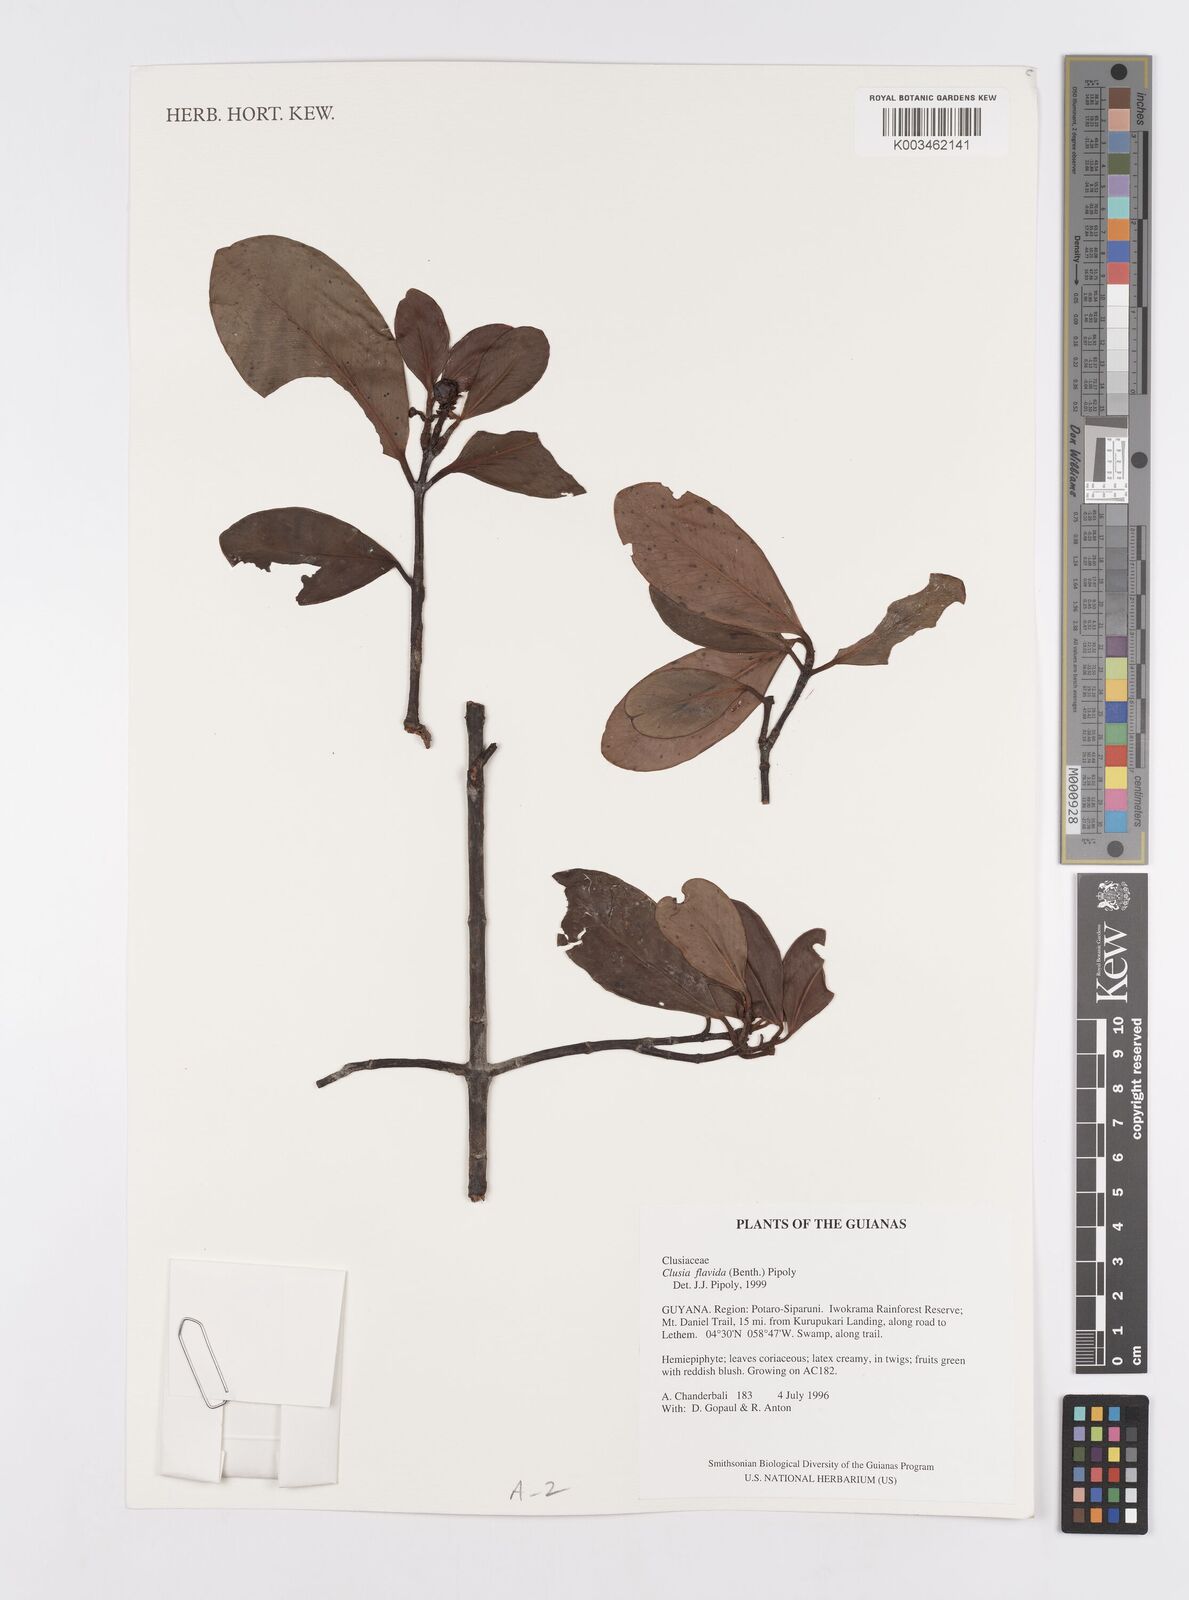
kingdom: Plantae
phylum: Tracheophyta
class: Magnoliopsida
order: Malpighiales
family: Clusiaceae
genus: Clusia
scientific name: Clusia flavida
